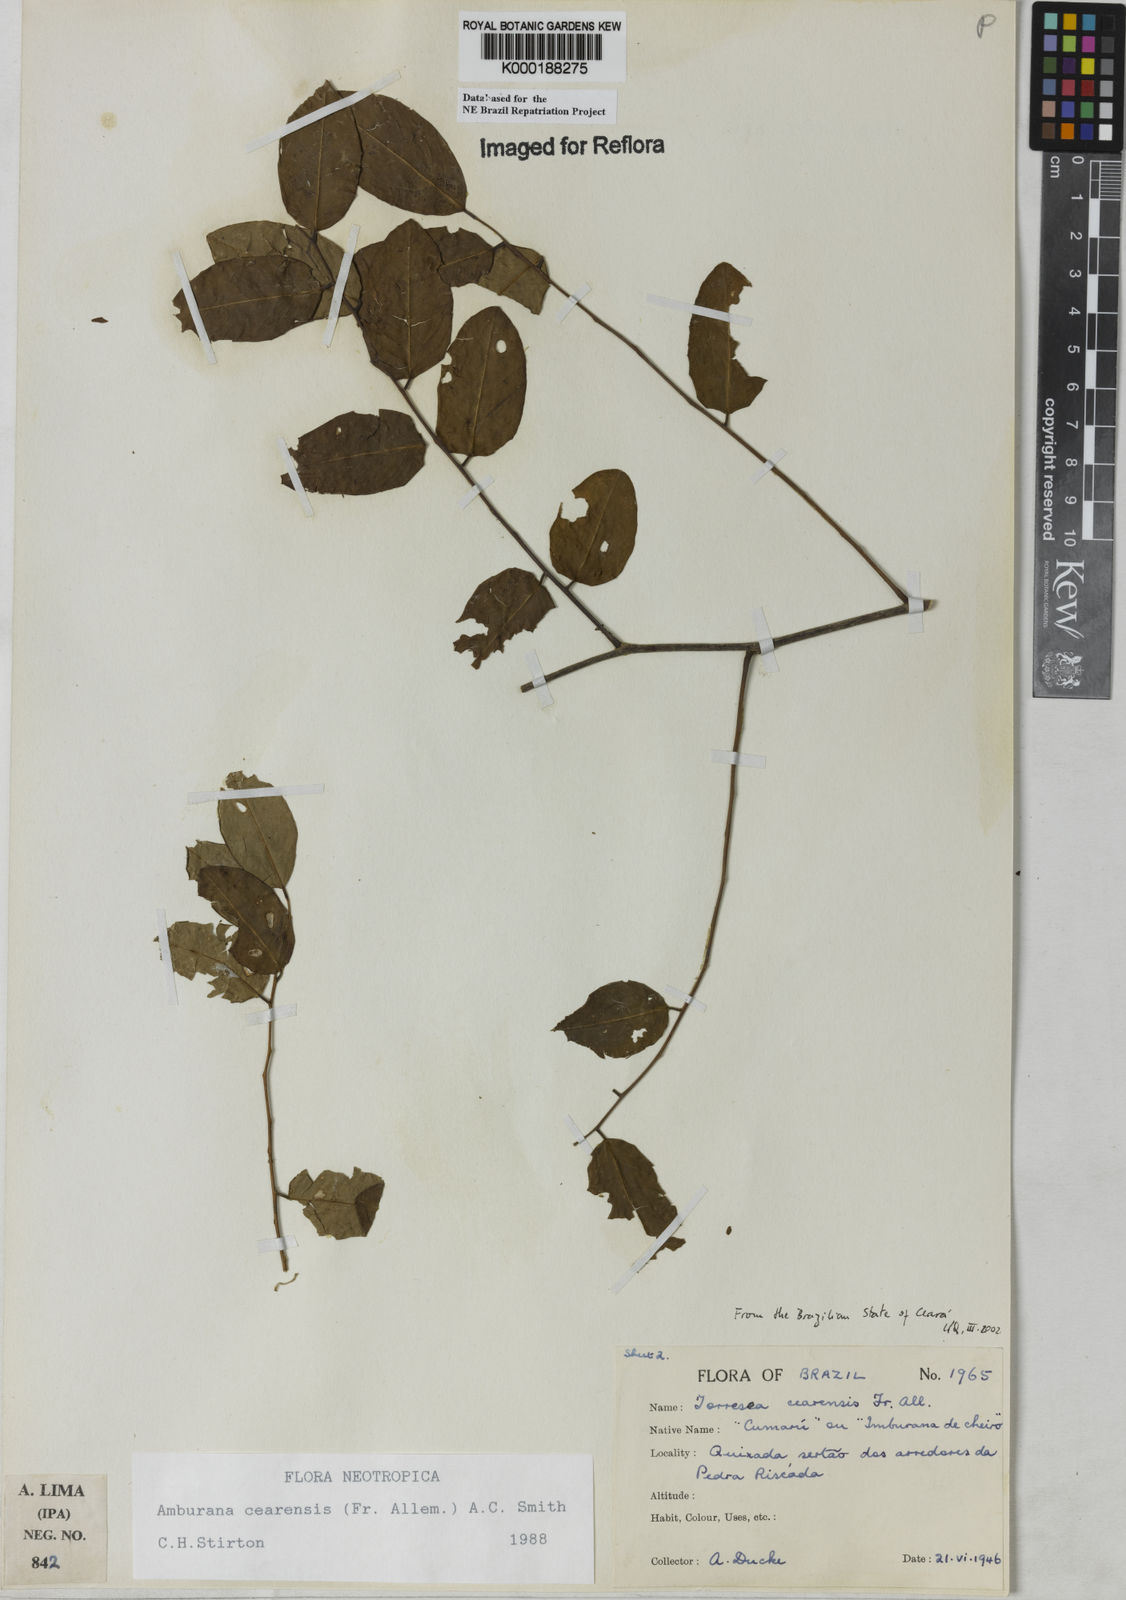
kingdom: Plantae
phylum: Tracheophyta
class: Magnoliopsida
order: Fabales
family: Fabaceae
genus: Amburana
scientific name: Amburana
